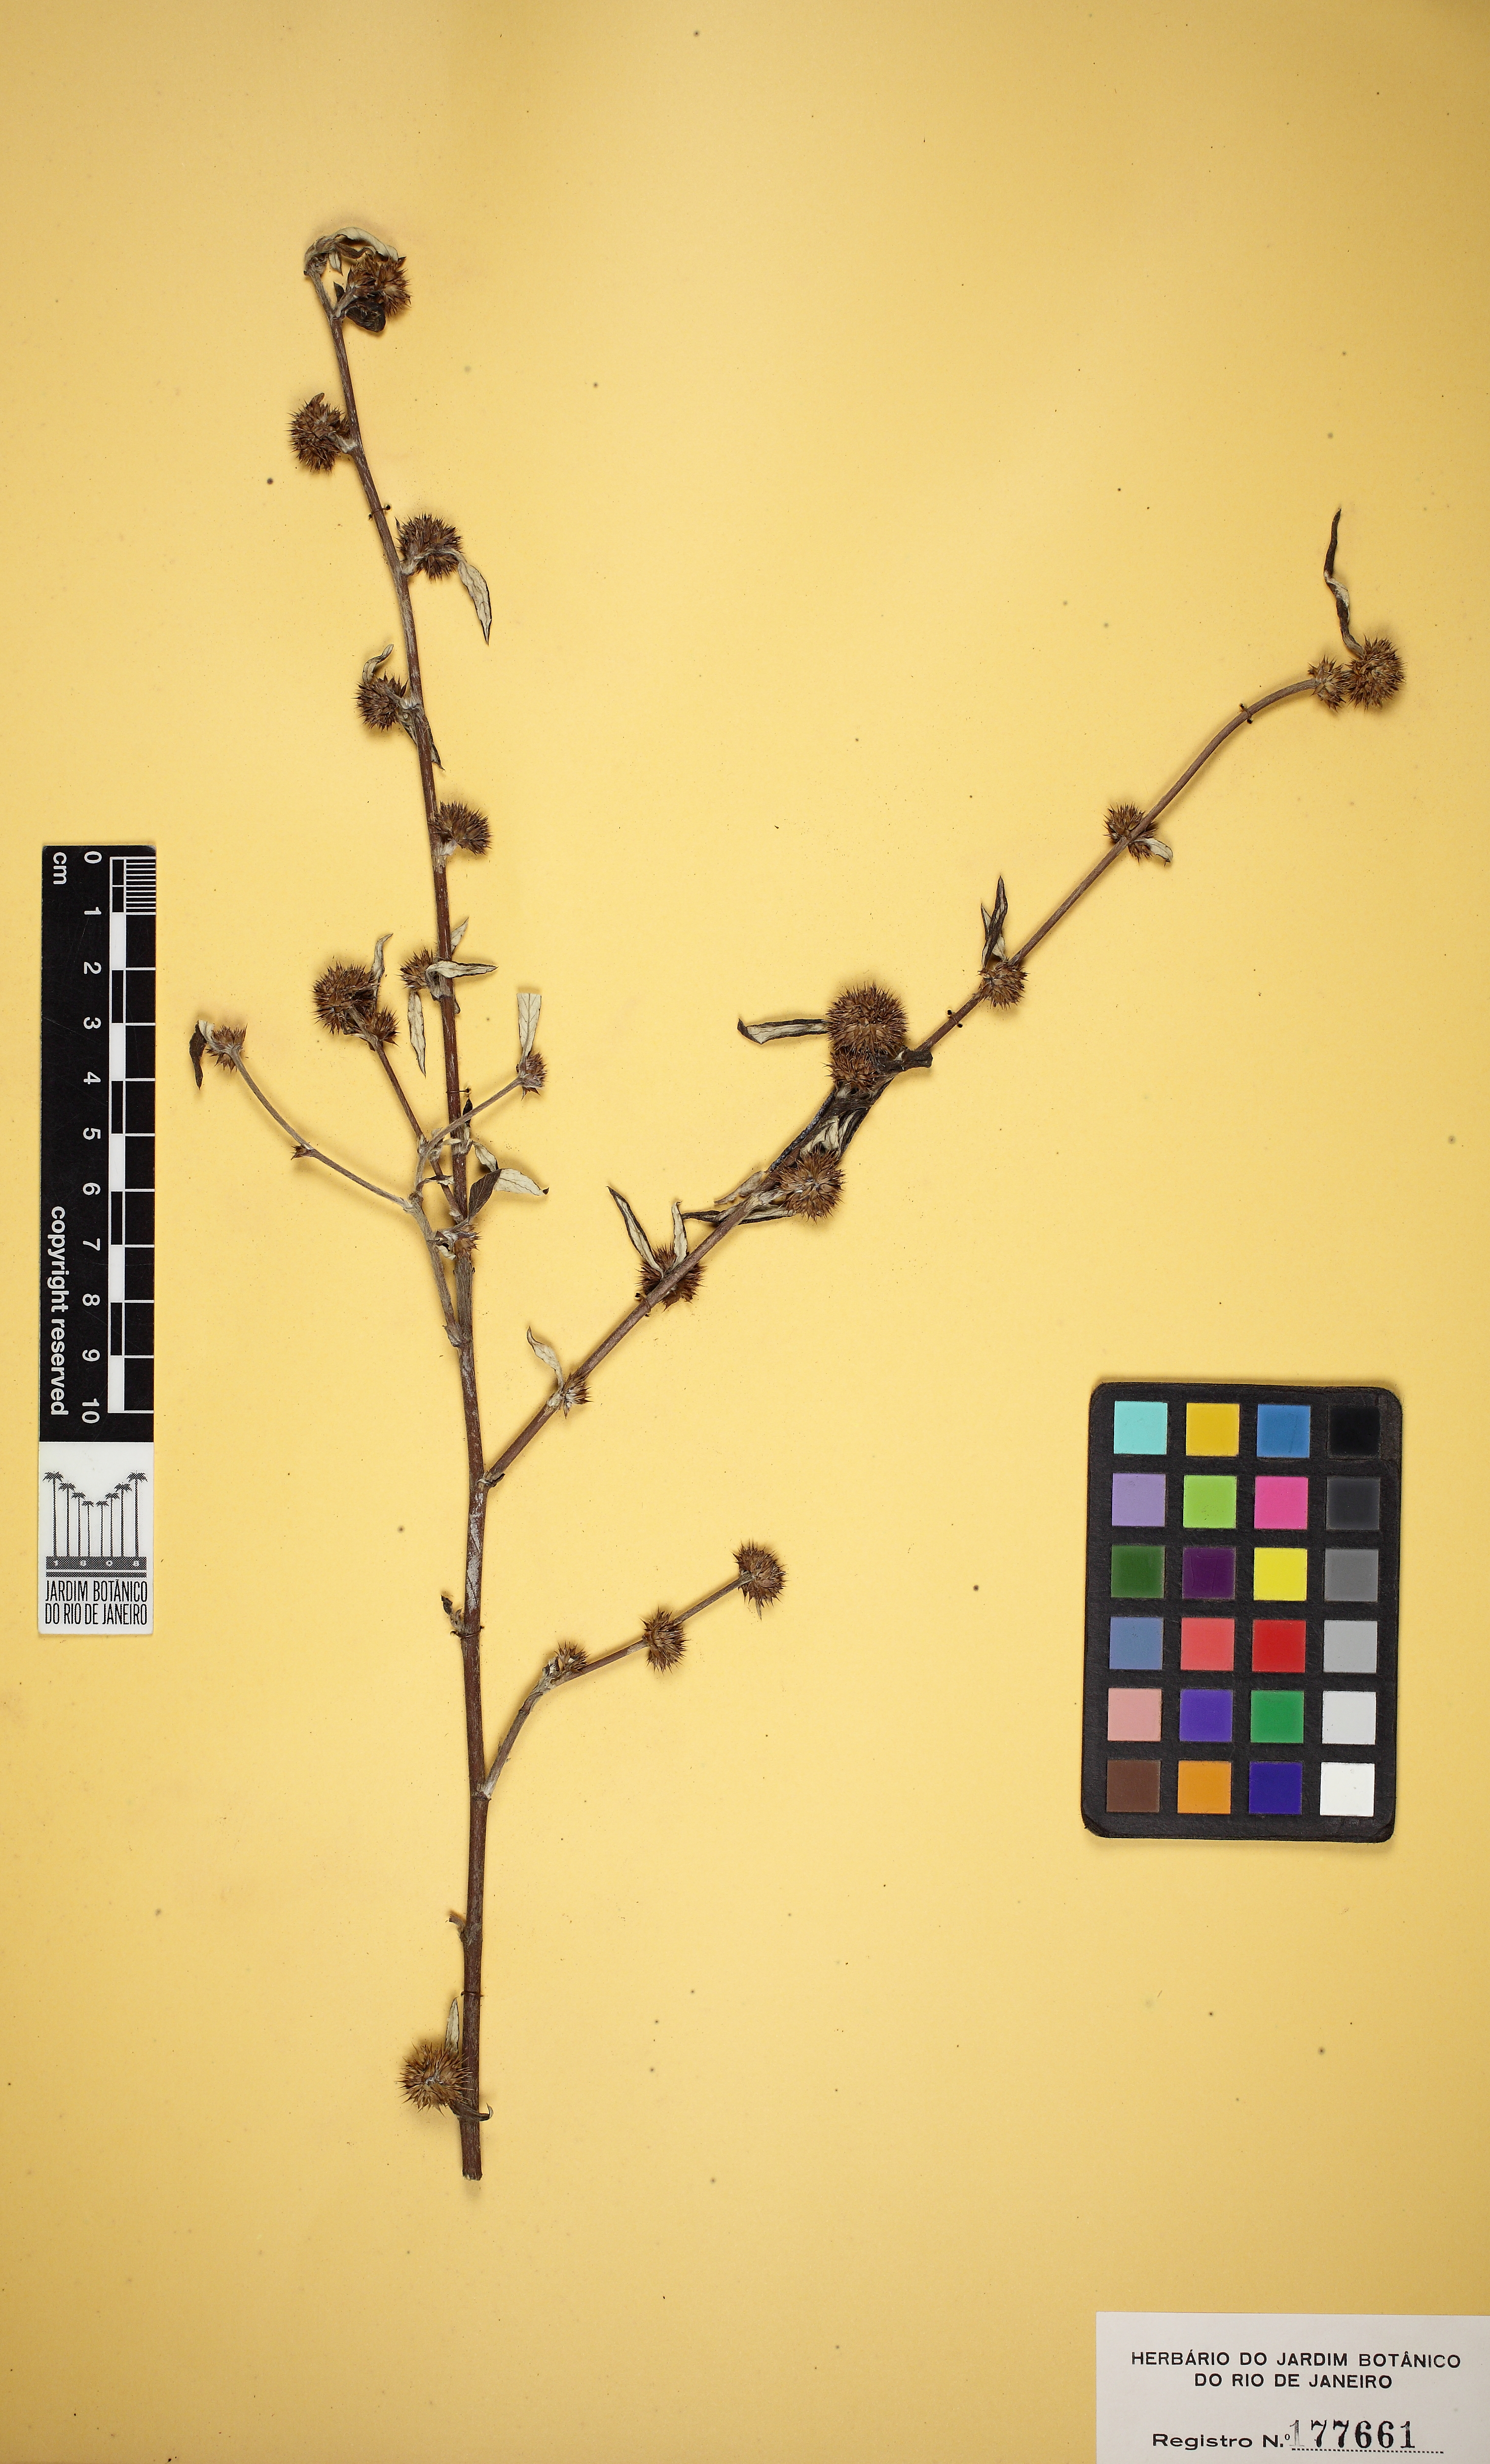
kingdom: Plantae
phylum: Tracheophyta
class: Magnoliopsida
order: Asterales
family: Asteraceae
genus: Rolandra
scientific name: Rolandra fruticosa
